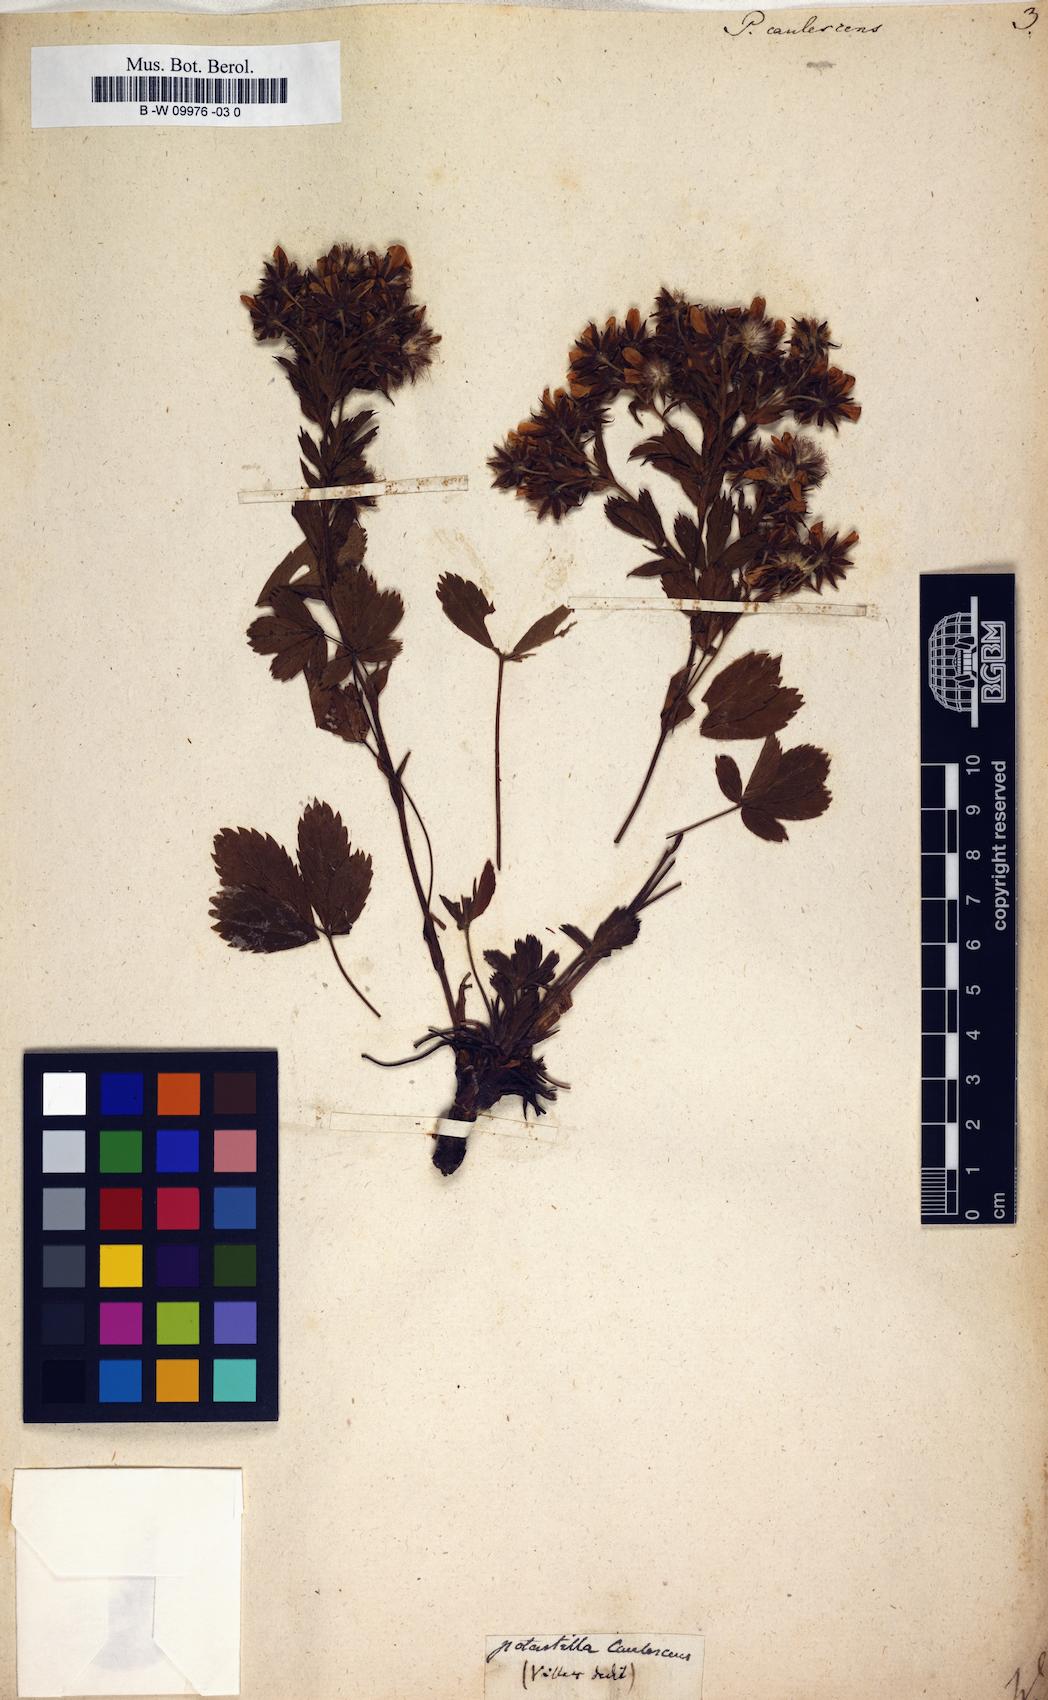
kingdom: Plantae
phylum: Tracheophyta
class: Magnoliopsida
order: Rosales
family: Rosaceae
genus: Potentilla
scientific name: Potentilla caulescens
